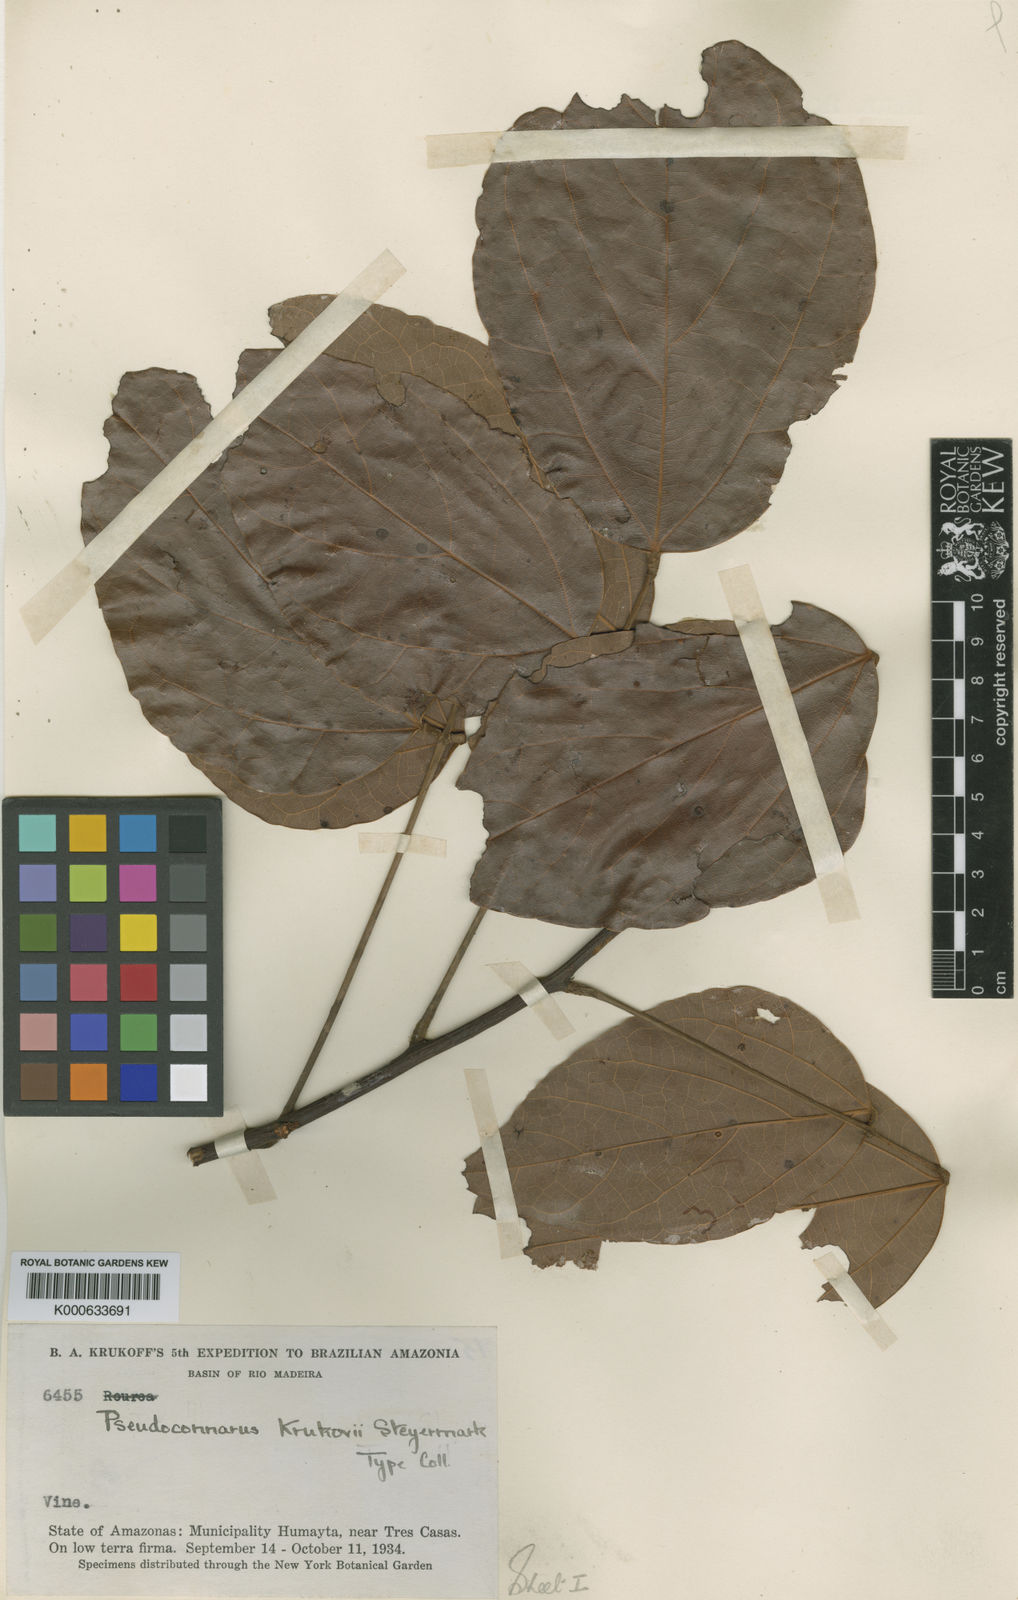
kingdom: Plantae
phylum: Tracheophyta
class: Magnoliopsida
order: Oxalidales
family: Connaraceae
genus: Pseudoconnarus
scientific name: Pseudoconnarus macrophyllus
